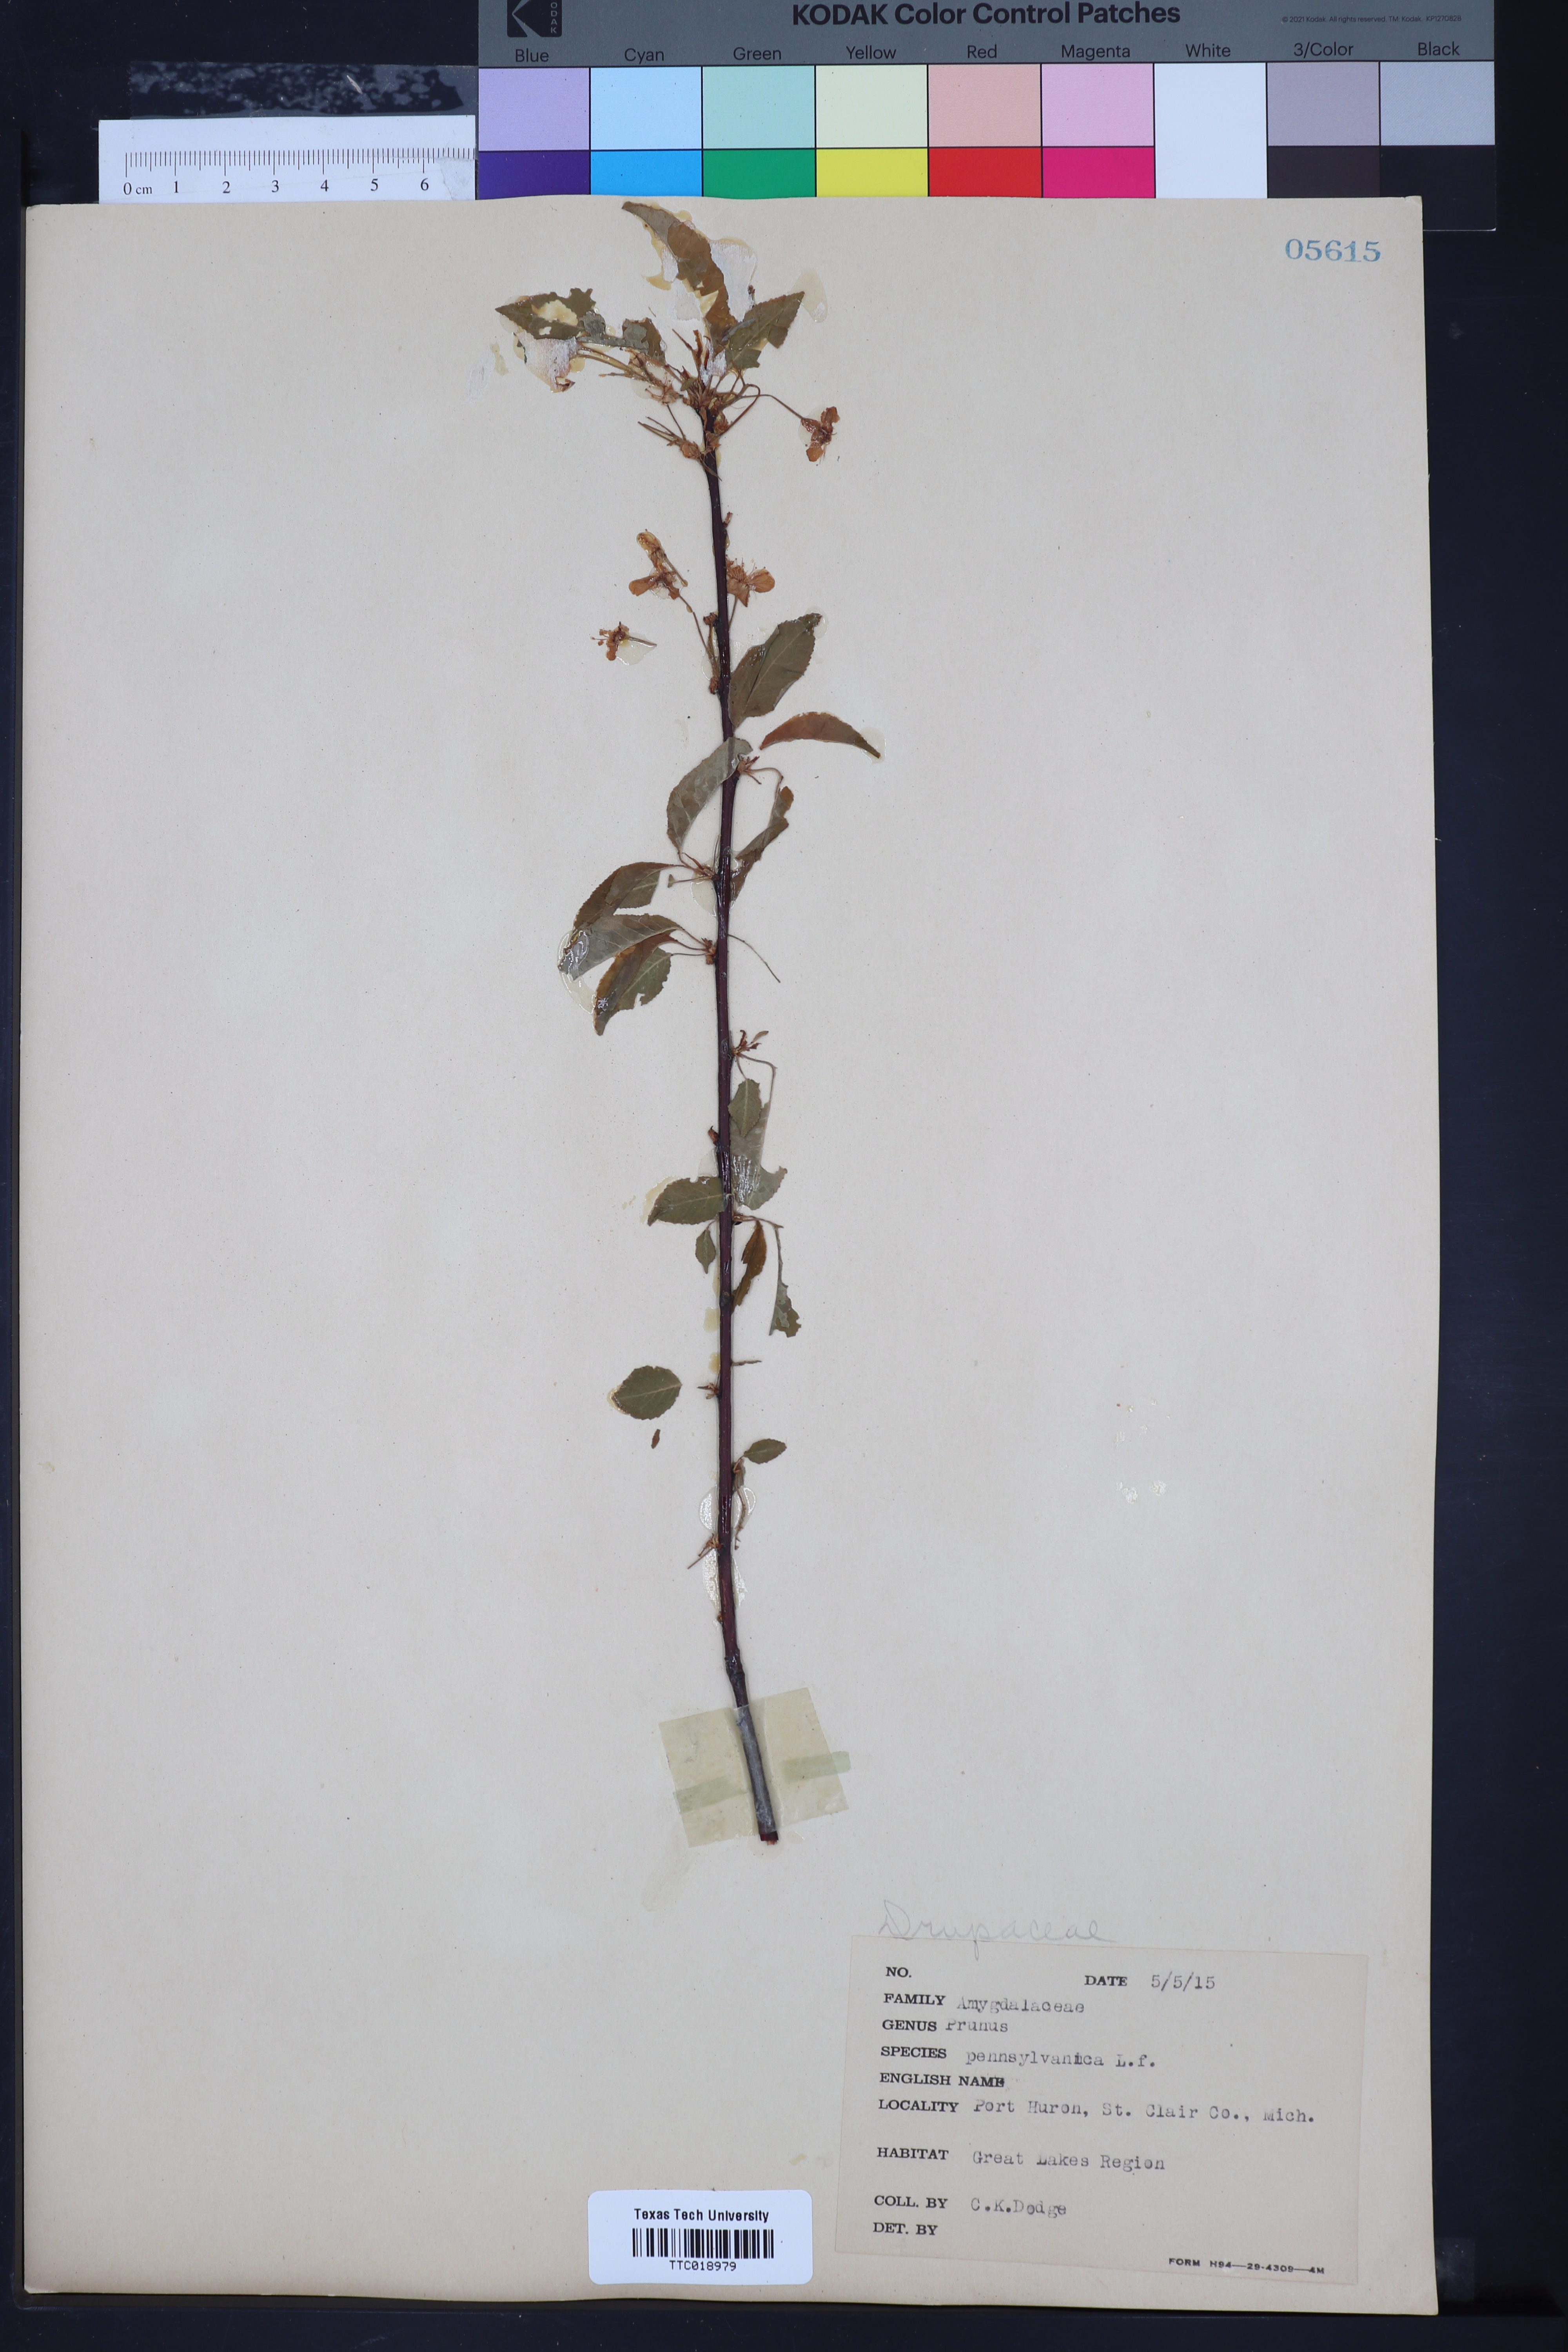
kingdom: Plantae
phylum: Tracheophyta
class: Magnoliopsida
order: Rosales
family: Rosaceae
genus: Prunus
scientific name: Prunus pumila
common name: Dwarf cherry
